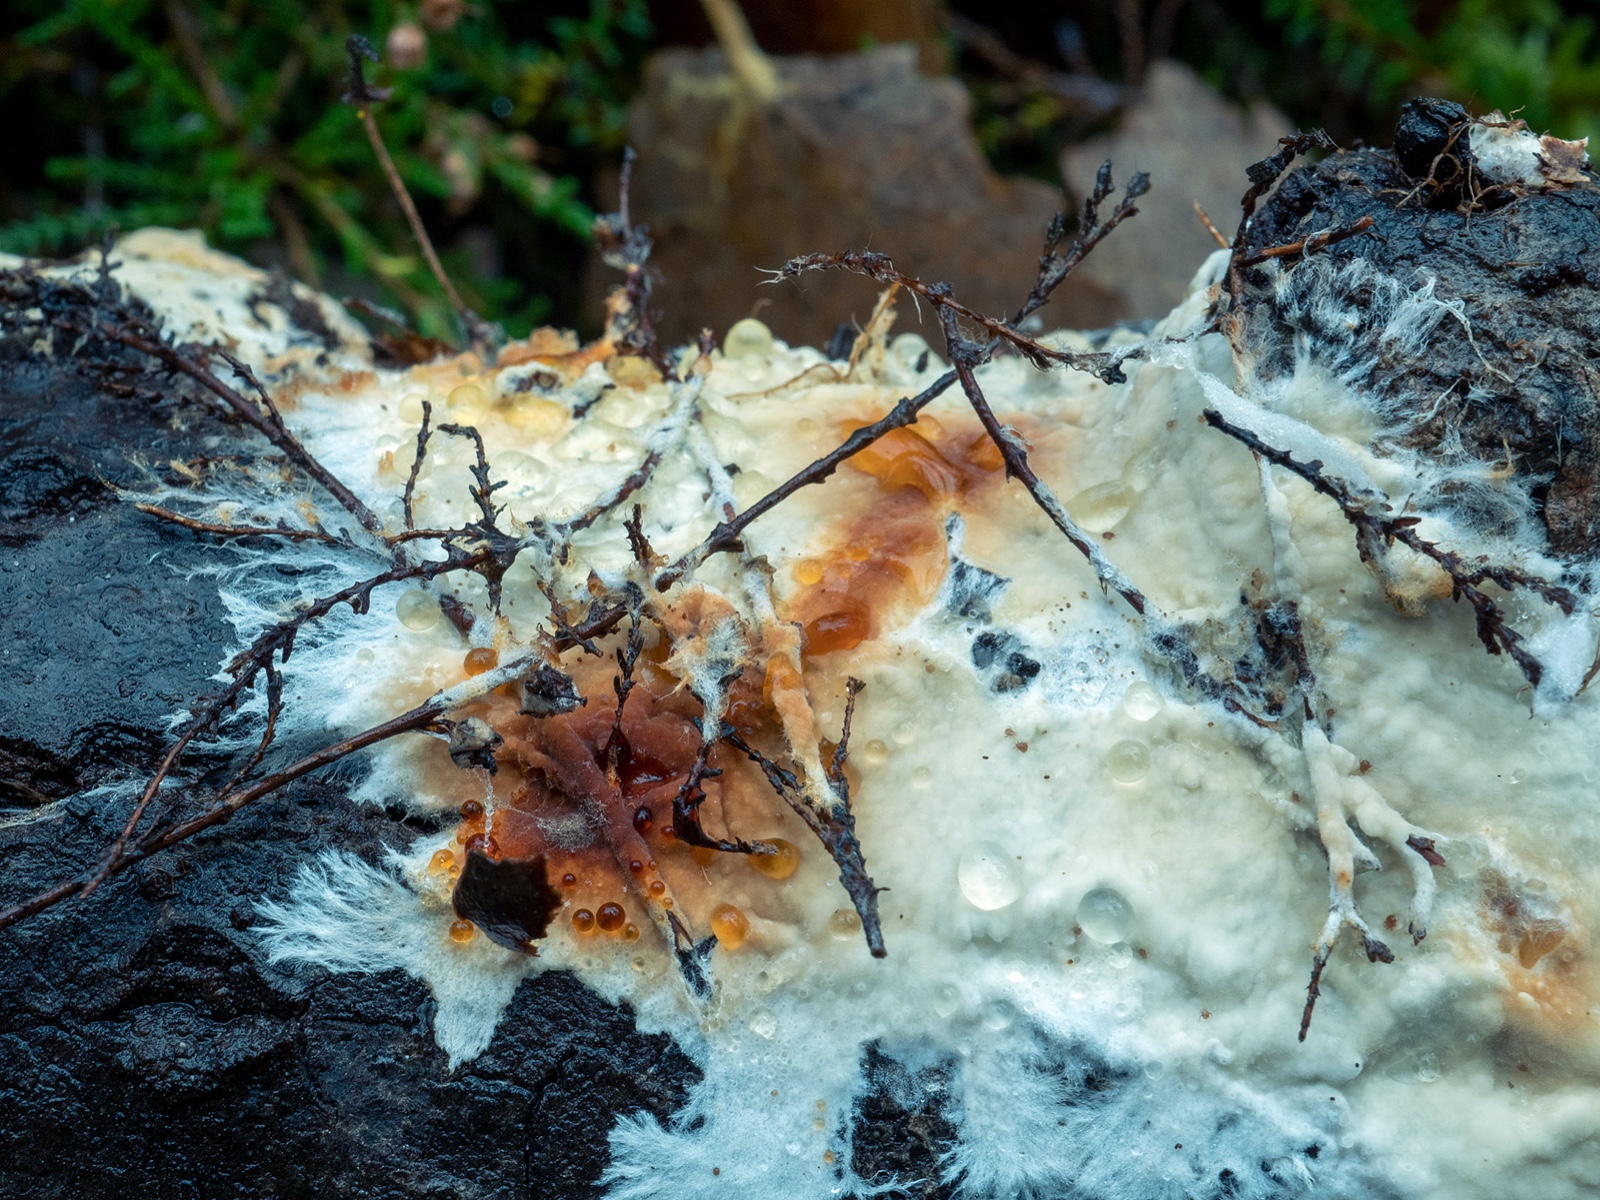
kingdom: Fungi
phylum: Basidiomycota
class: Agaricomycetes
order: Polyporales
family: Phanerochaetaceae
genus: Phanerochaete
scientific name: Phanerochaete sordida
